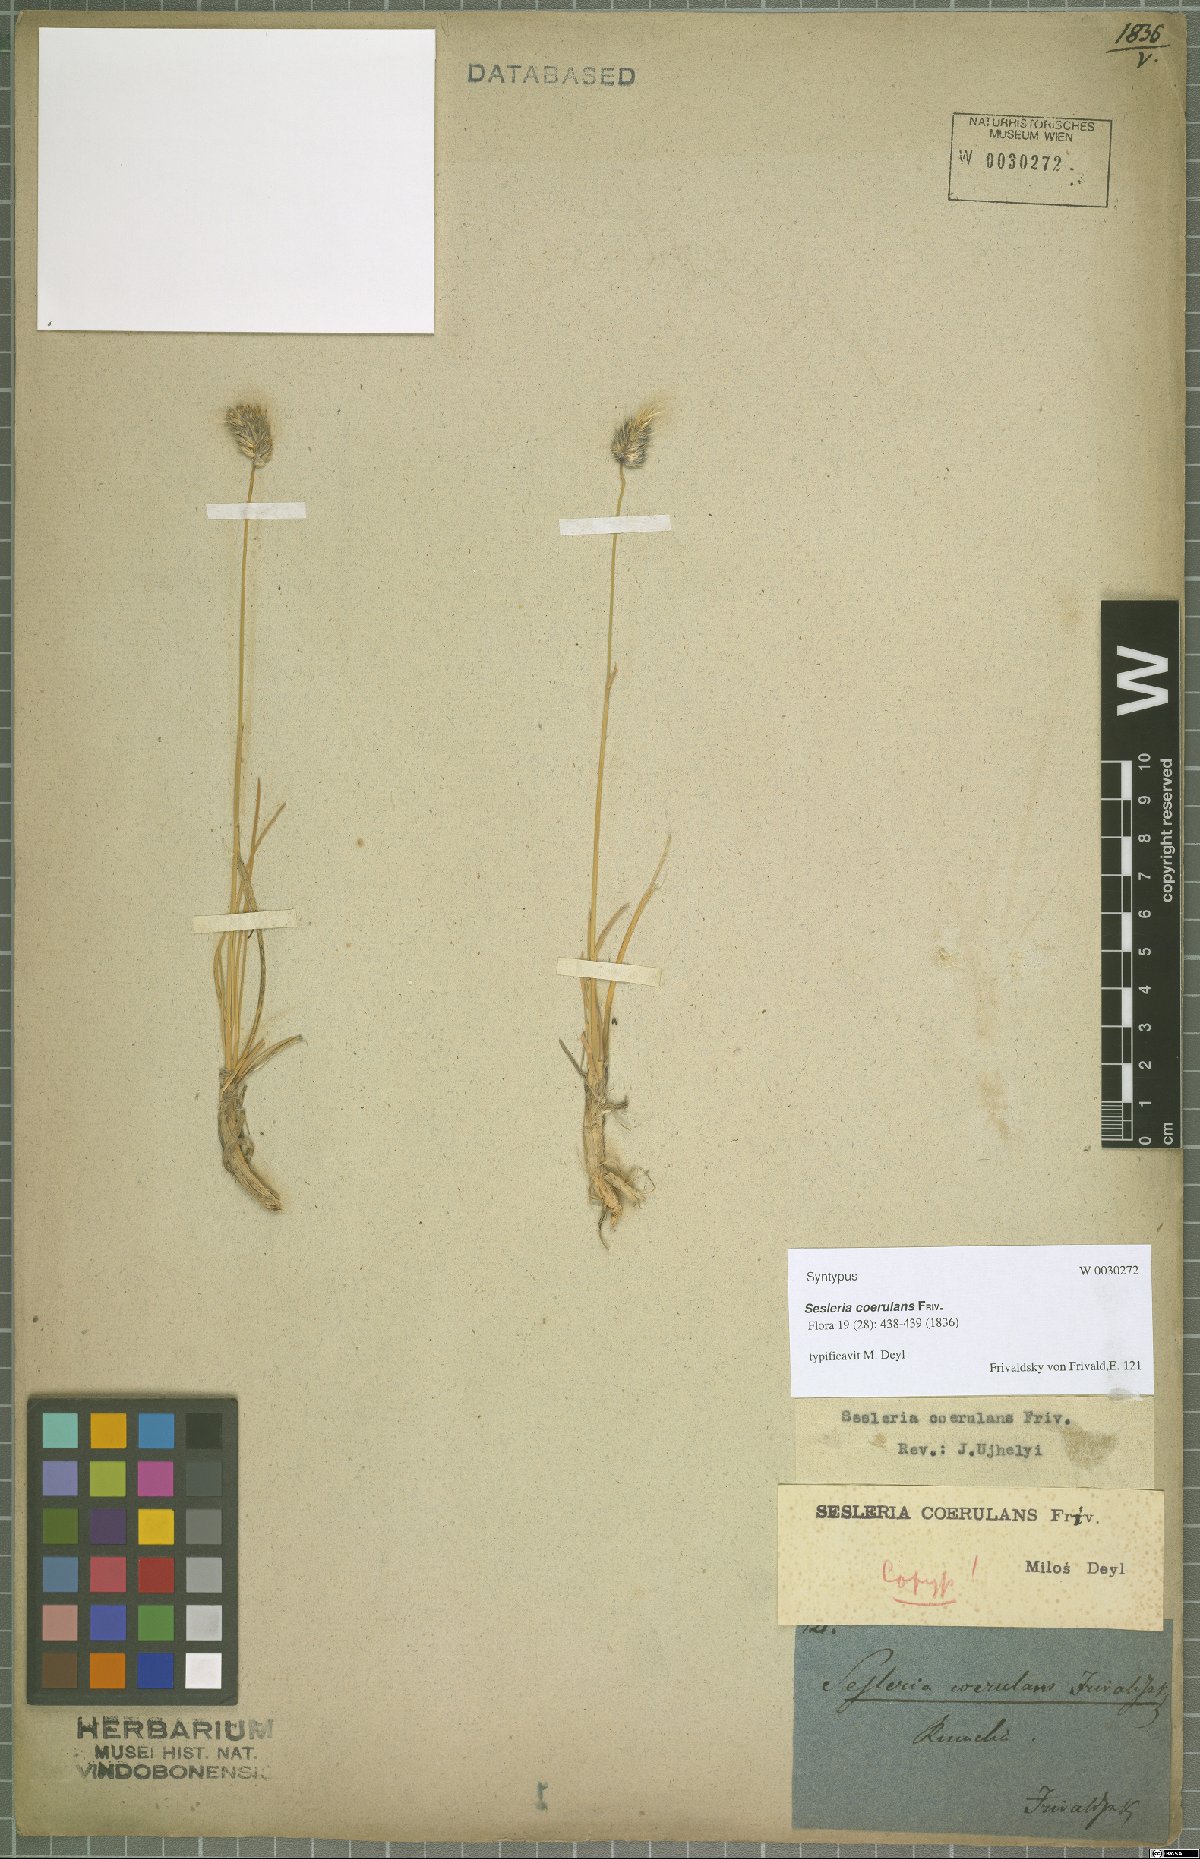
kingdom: Plantae
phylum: Tracheophyta
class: Liliopsida
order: Poales
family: Poaceae
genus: Sesleria
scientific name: Sesleria coerulans
